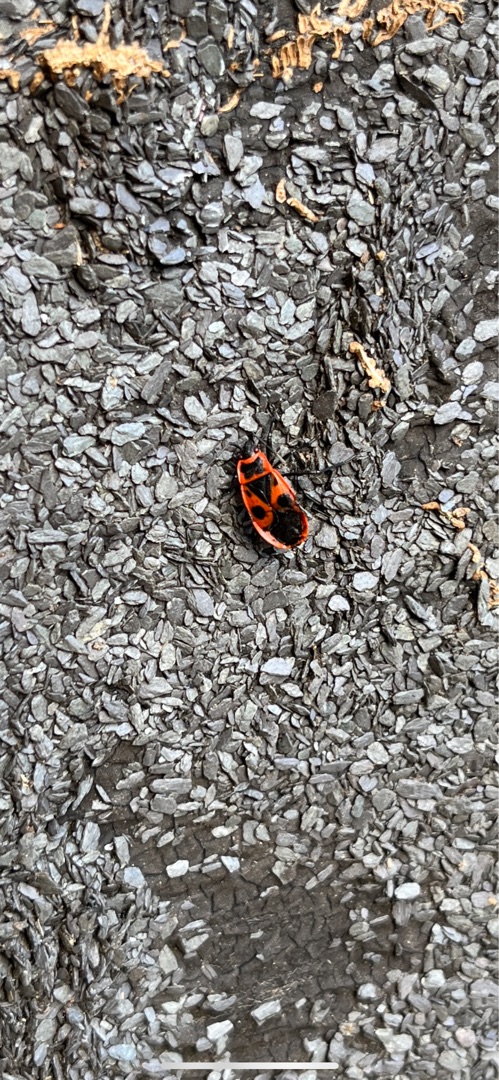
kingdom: Animalia
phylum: Arthropoda
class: Insecta
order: Hemiptera
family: Pyrrhocoridae
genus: Pyrrhocoris
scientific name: Pyrrhocoris apterus
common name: Ildtæge
